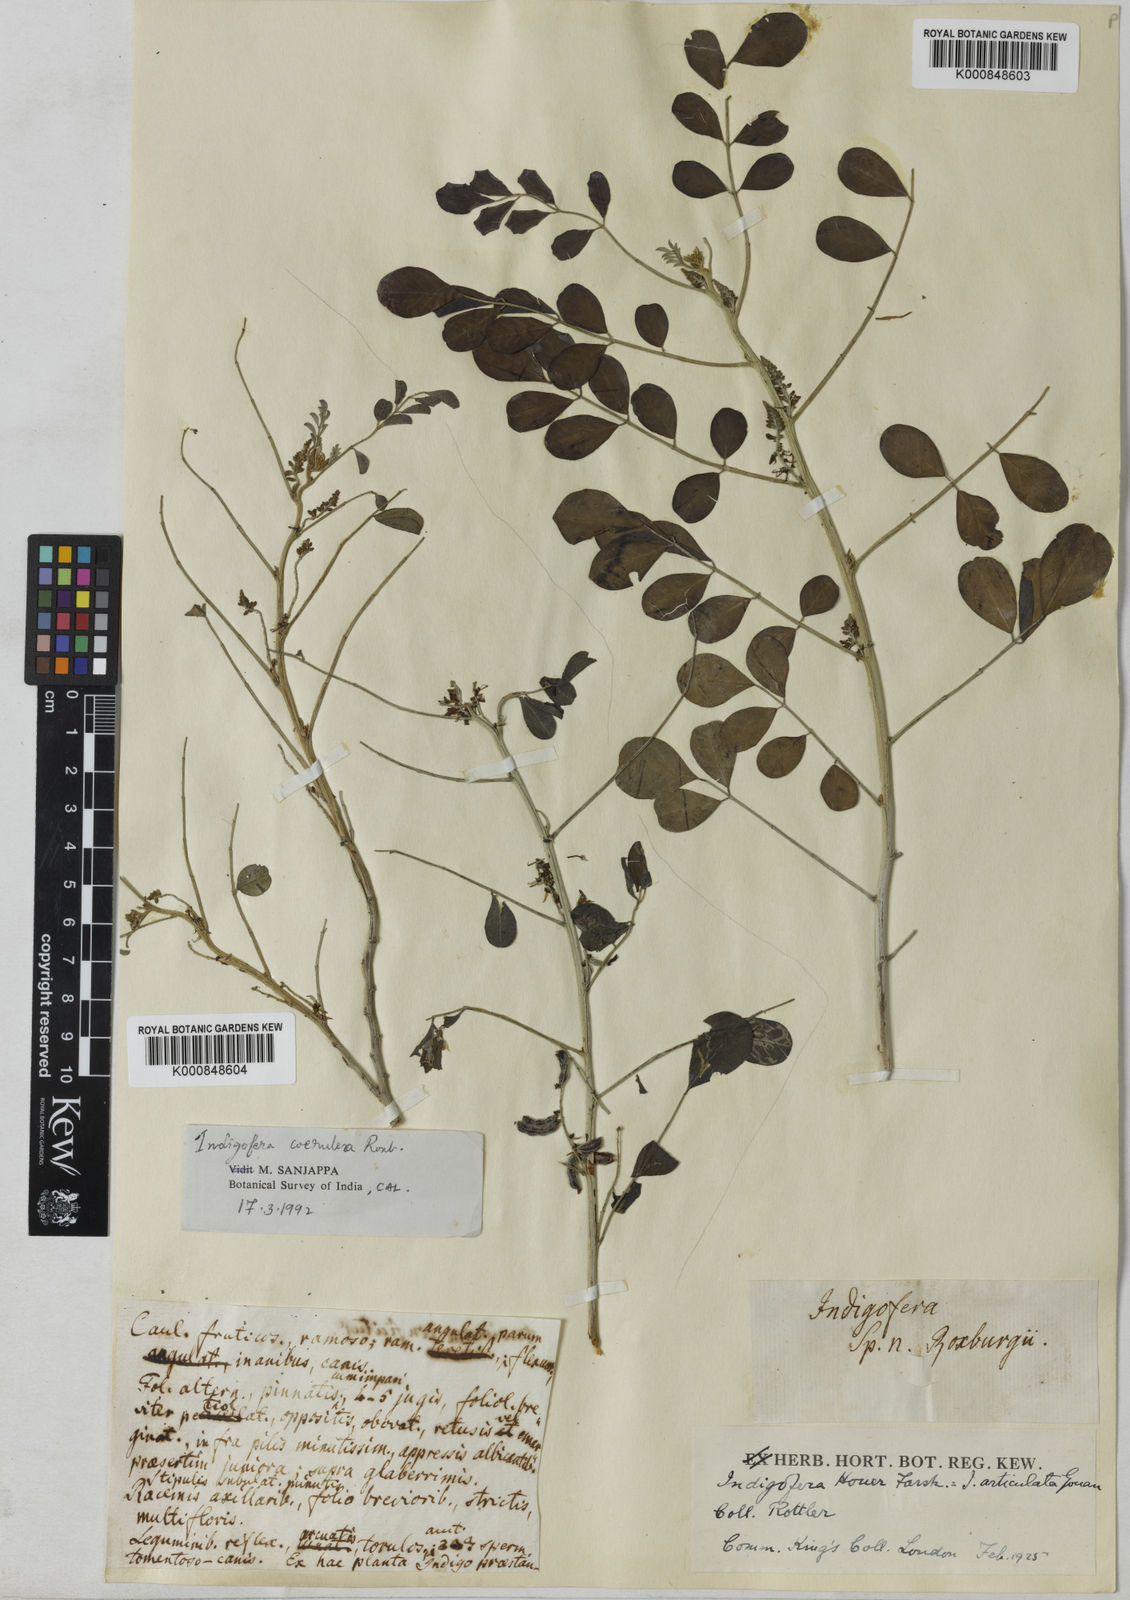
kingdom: Plantae
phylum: Tracheophyta
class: Magnoliopsida
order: Fabales
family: Fabaceae
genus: Indigofera
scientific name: Indigofera coerulea
